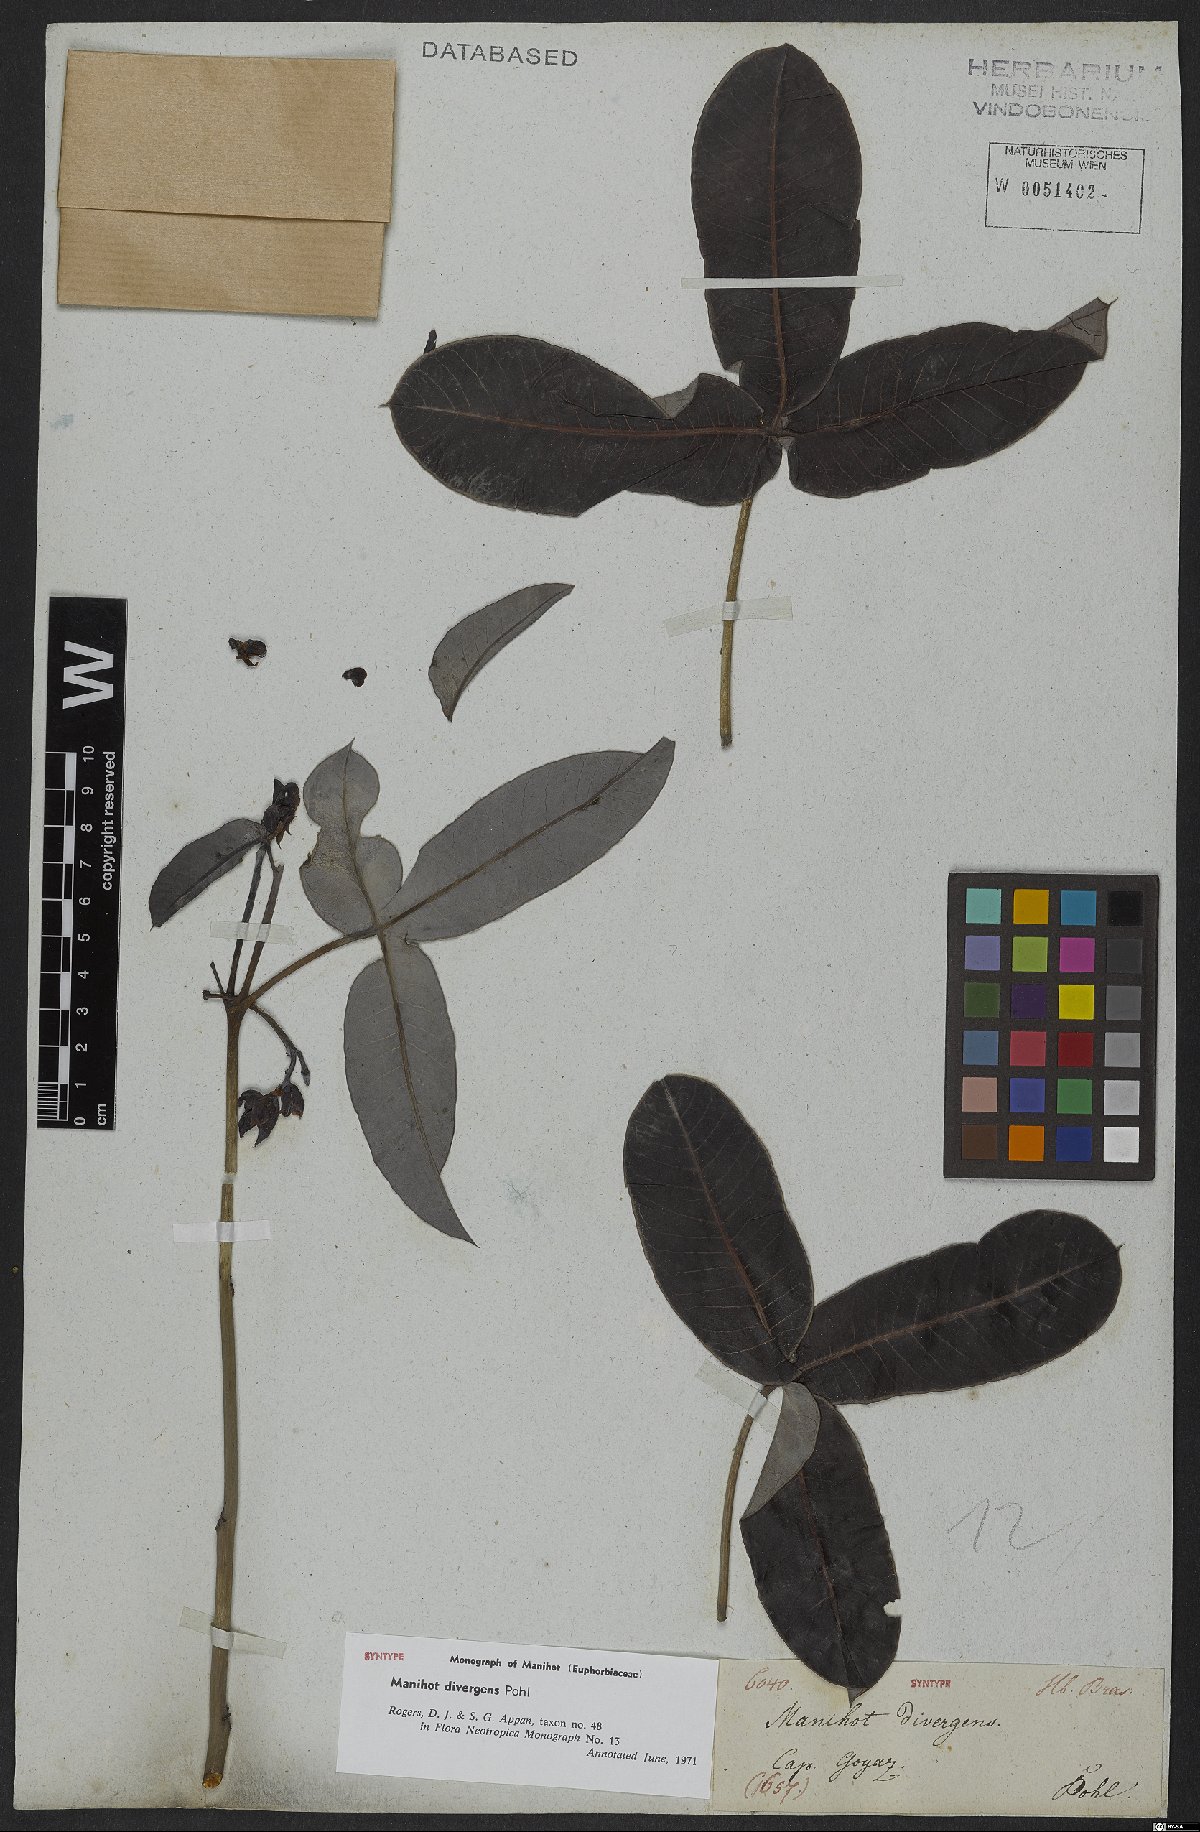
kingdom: Plantae
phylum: Tracheophyta
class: Magnoliopsida
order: Malpighiales
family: Euphorbiaceae
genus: Manihot
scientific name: Manihot divergens
